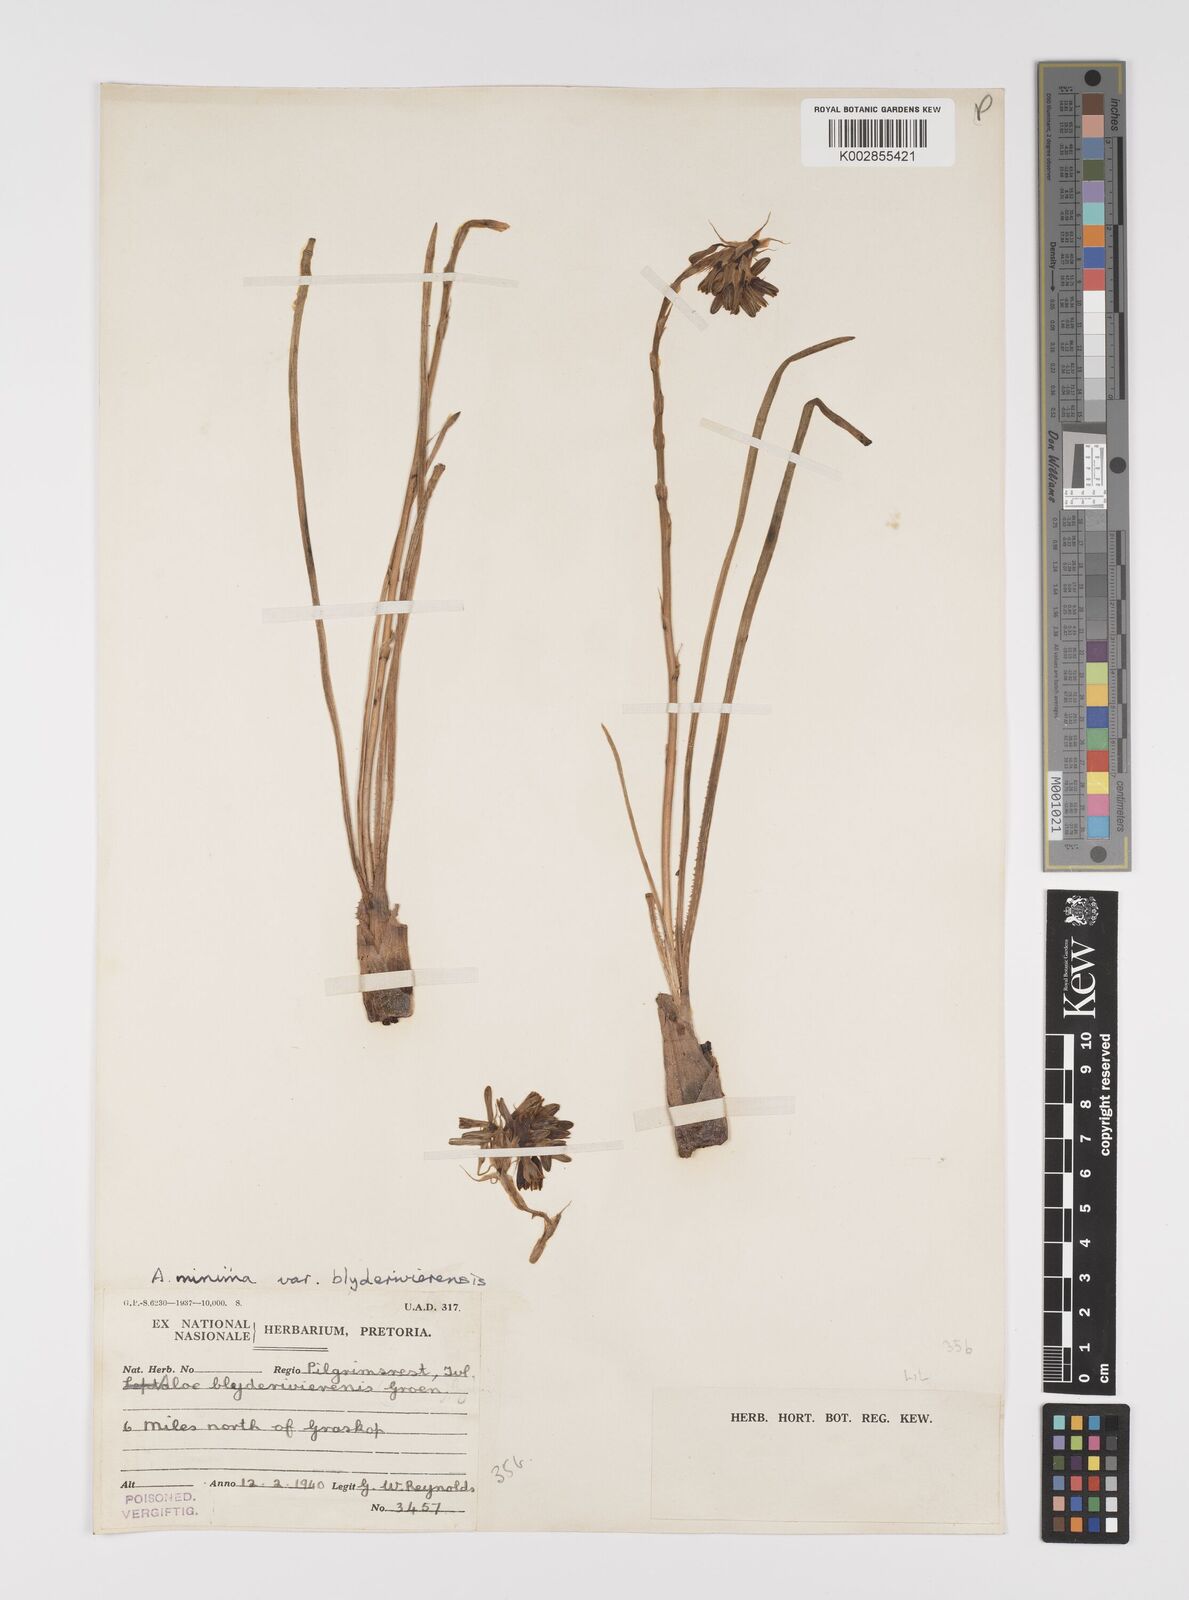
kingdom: Plantae
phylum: Tracheophyta
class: Liliopsida
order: Asparagales
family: Asphodelaceae
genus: Aloe
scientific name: Aloe minima
